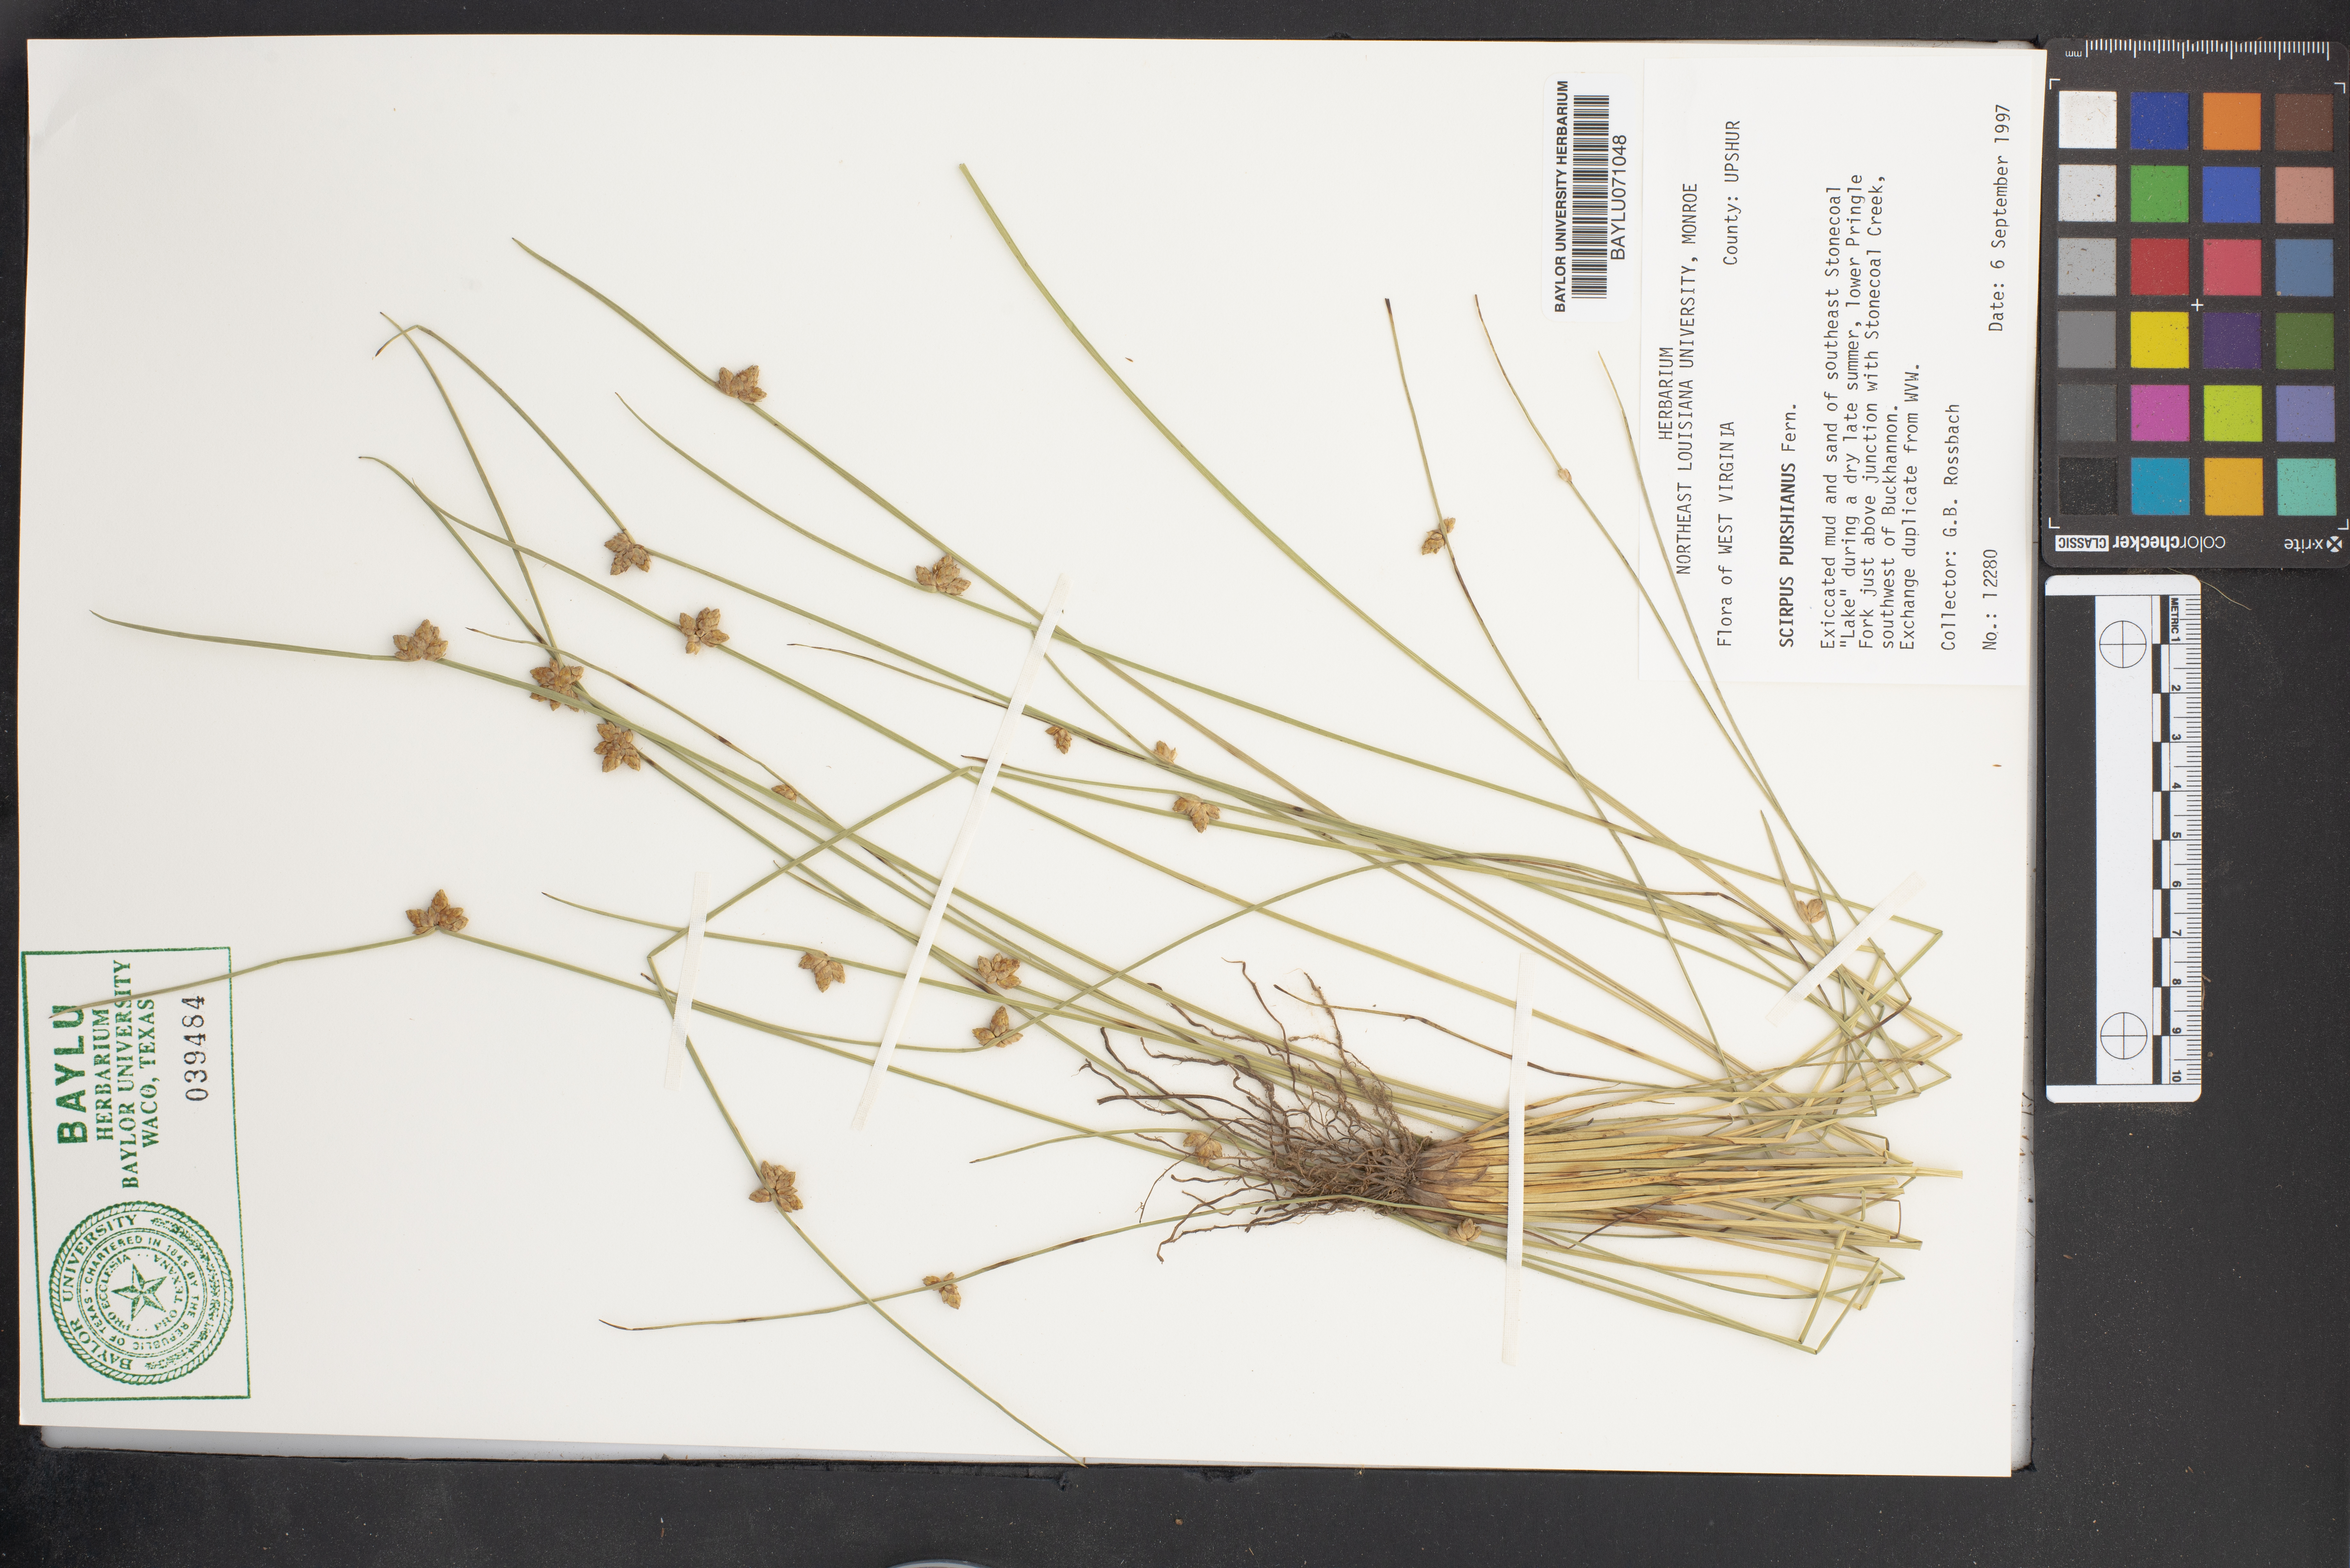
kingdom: Plantae
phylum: Tracheophyta
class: Liliopsida
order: Poales
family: Cyperaceae
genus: Schoenoplectiella
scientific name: Schoenoplectiella purshiana
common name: Weak-stalked bulrush
